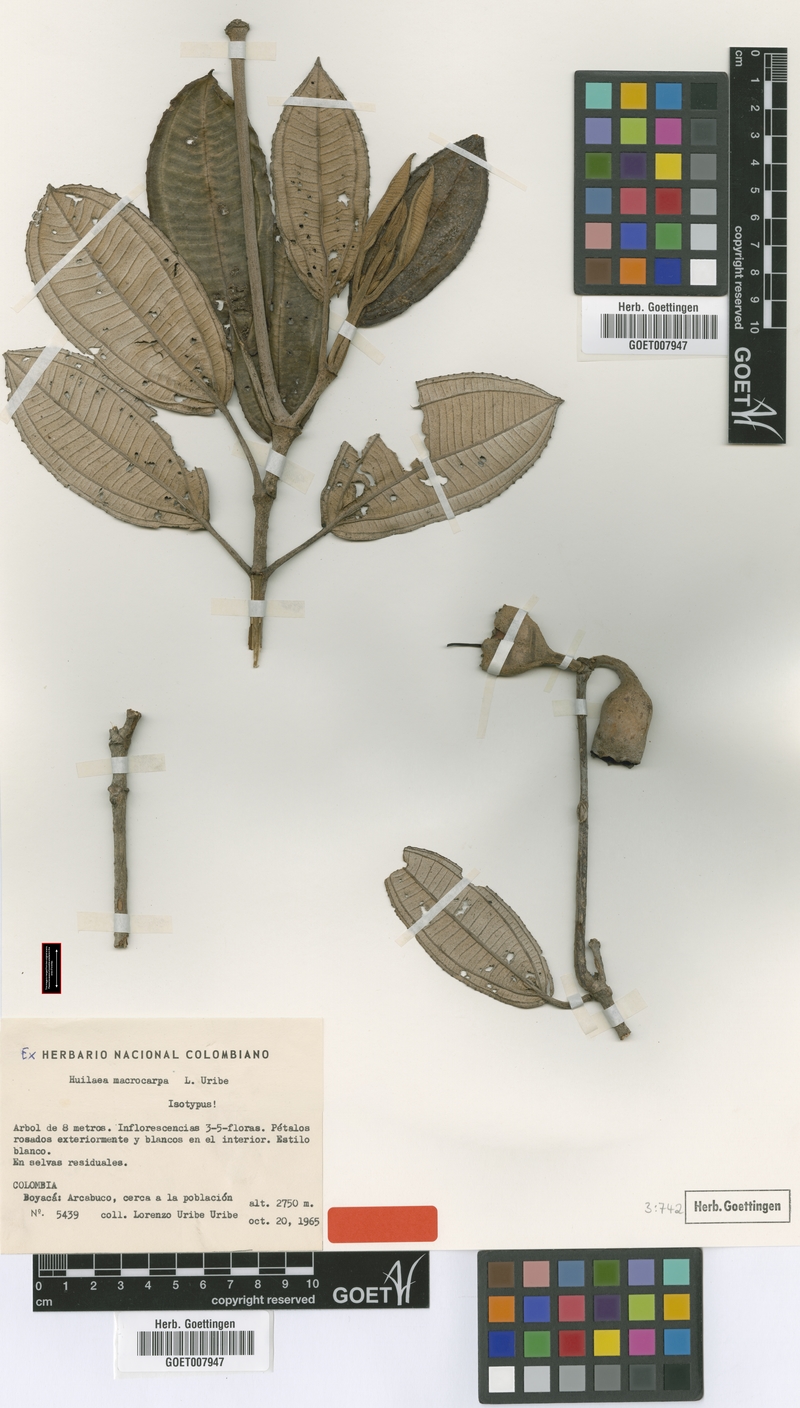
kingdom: Plantae
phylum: Tracheophyta
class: Magnoliopsida
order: Myrtales
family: Melastomataceae
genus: Chalybea
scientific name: Chalybea macrocarpa
